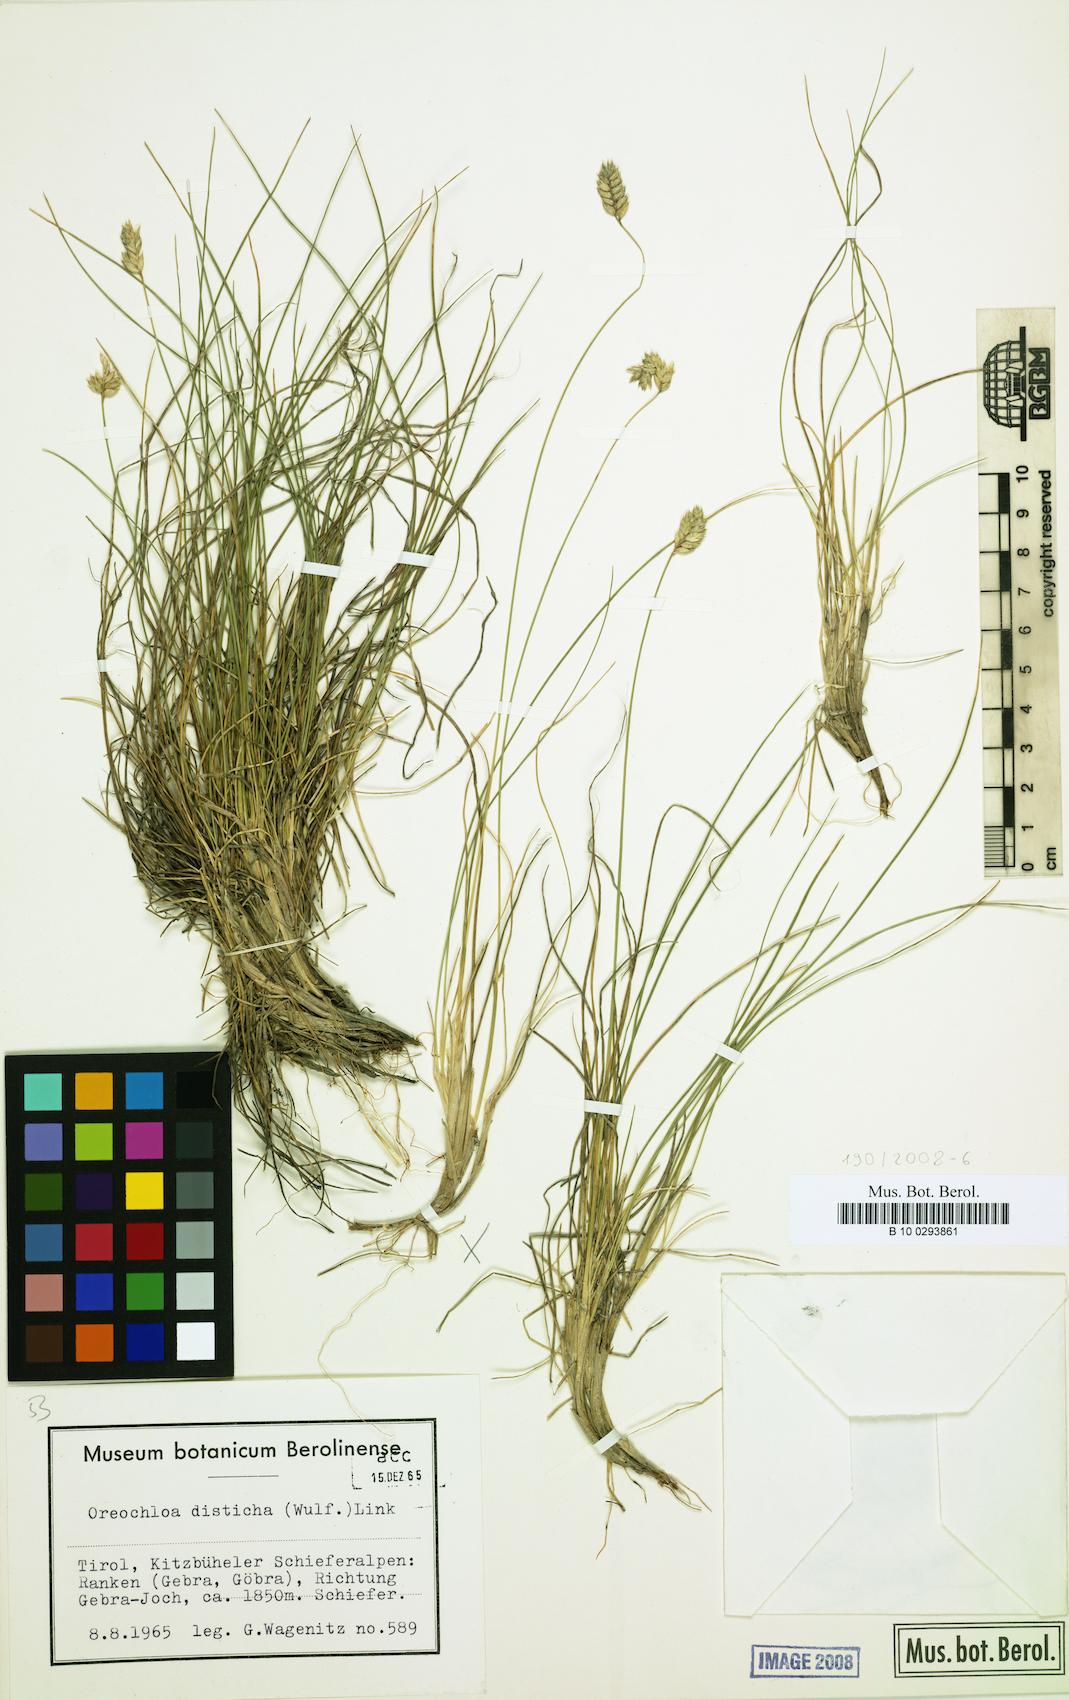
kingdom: Plantae
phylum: Tracheophyta
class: Liliopsida
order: Poales
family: Poaceae
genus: Oreochloa
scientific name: Oreochloa disticha
